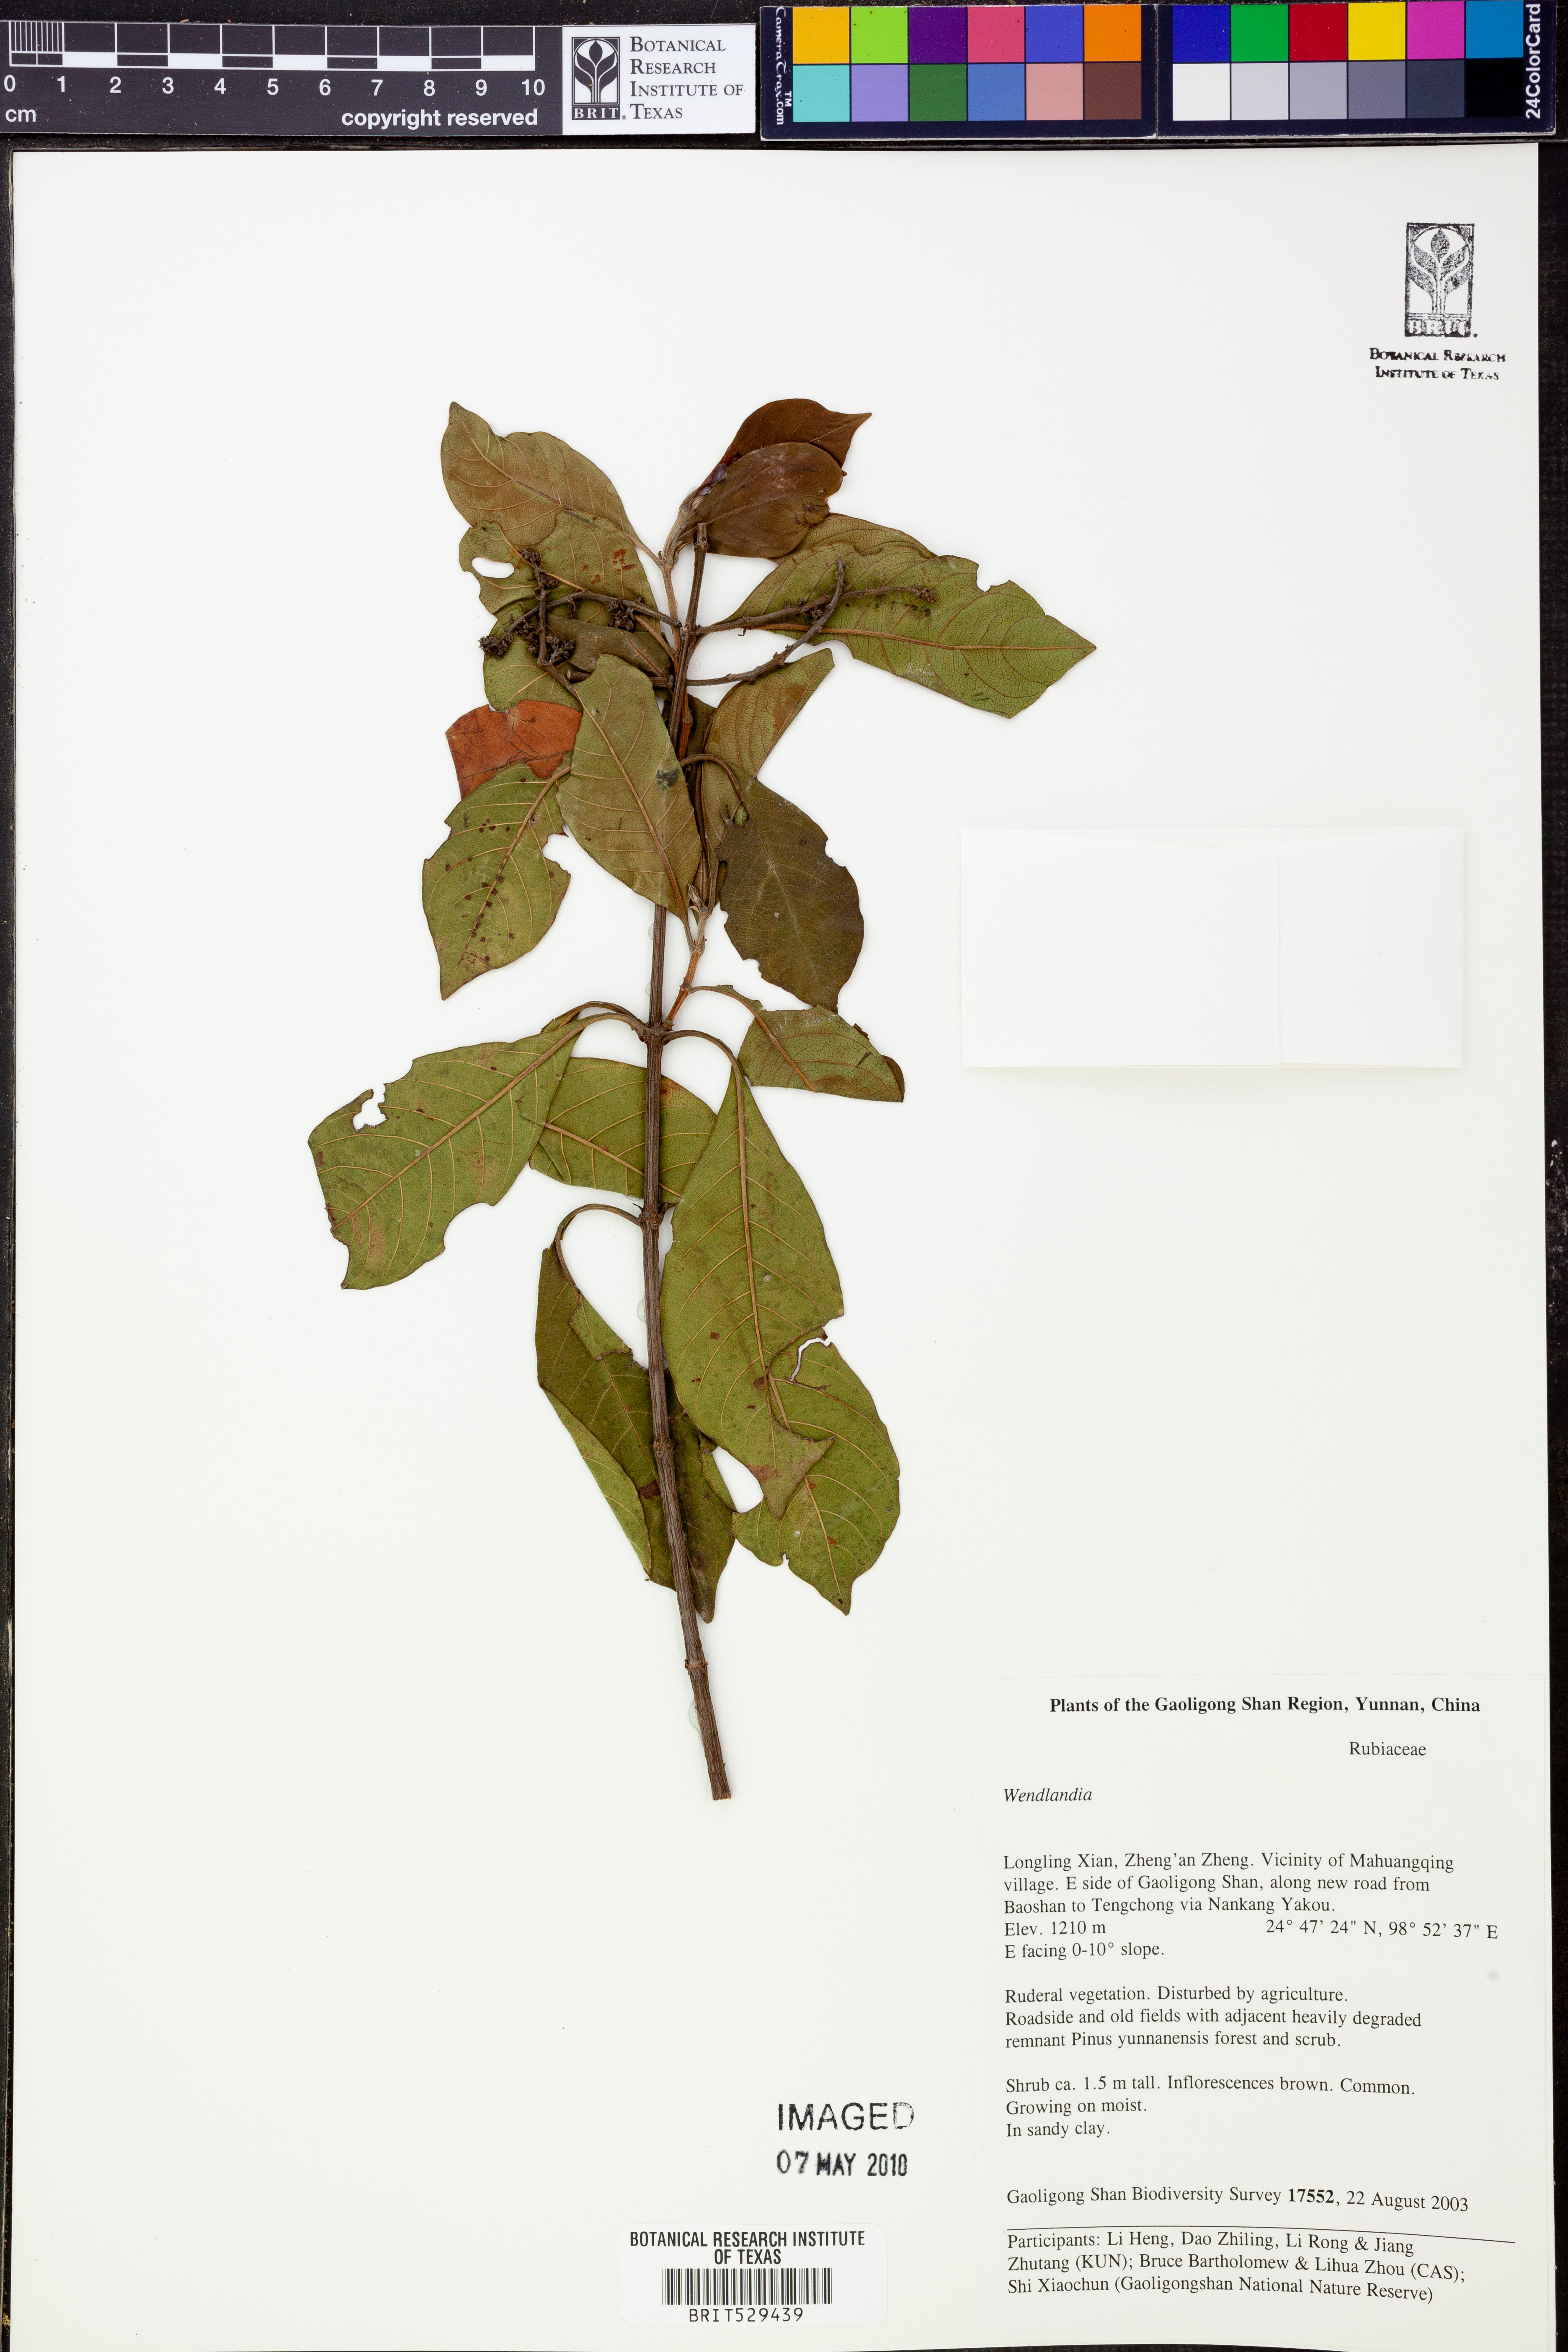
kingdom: Plantae
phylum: Tracheophyta
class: Magnoliopsida
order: Gentianales
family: Rubiaceae
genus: Wendlandia
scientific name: Wendlandia
